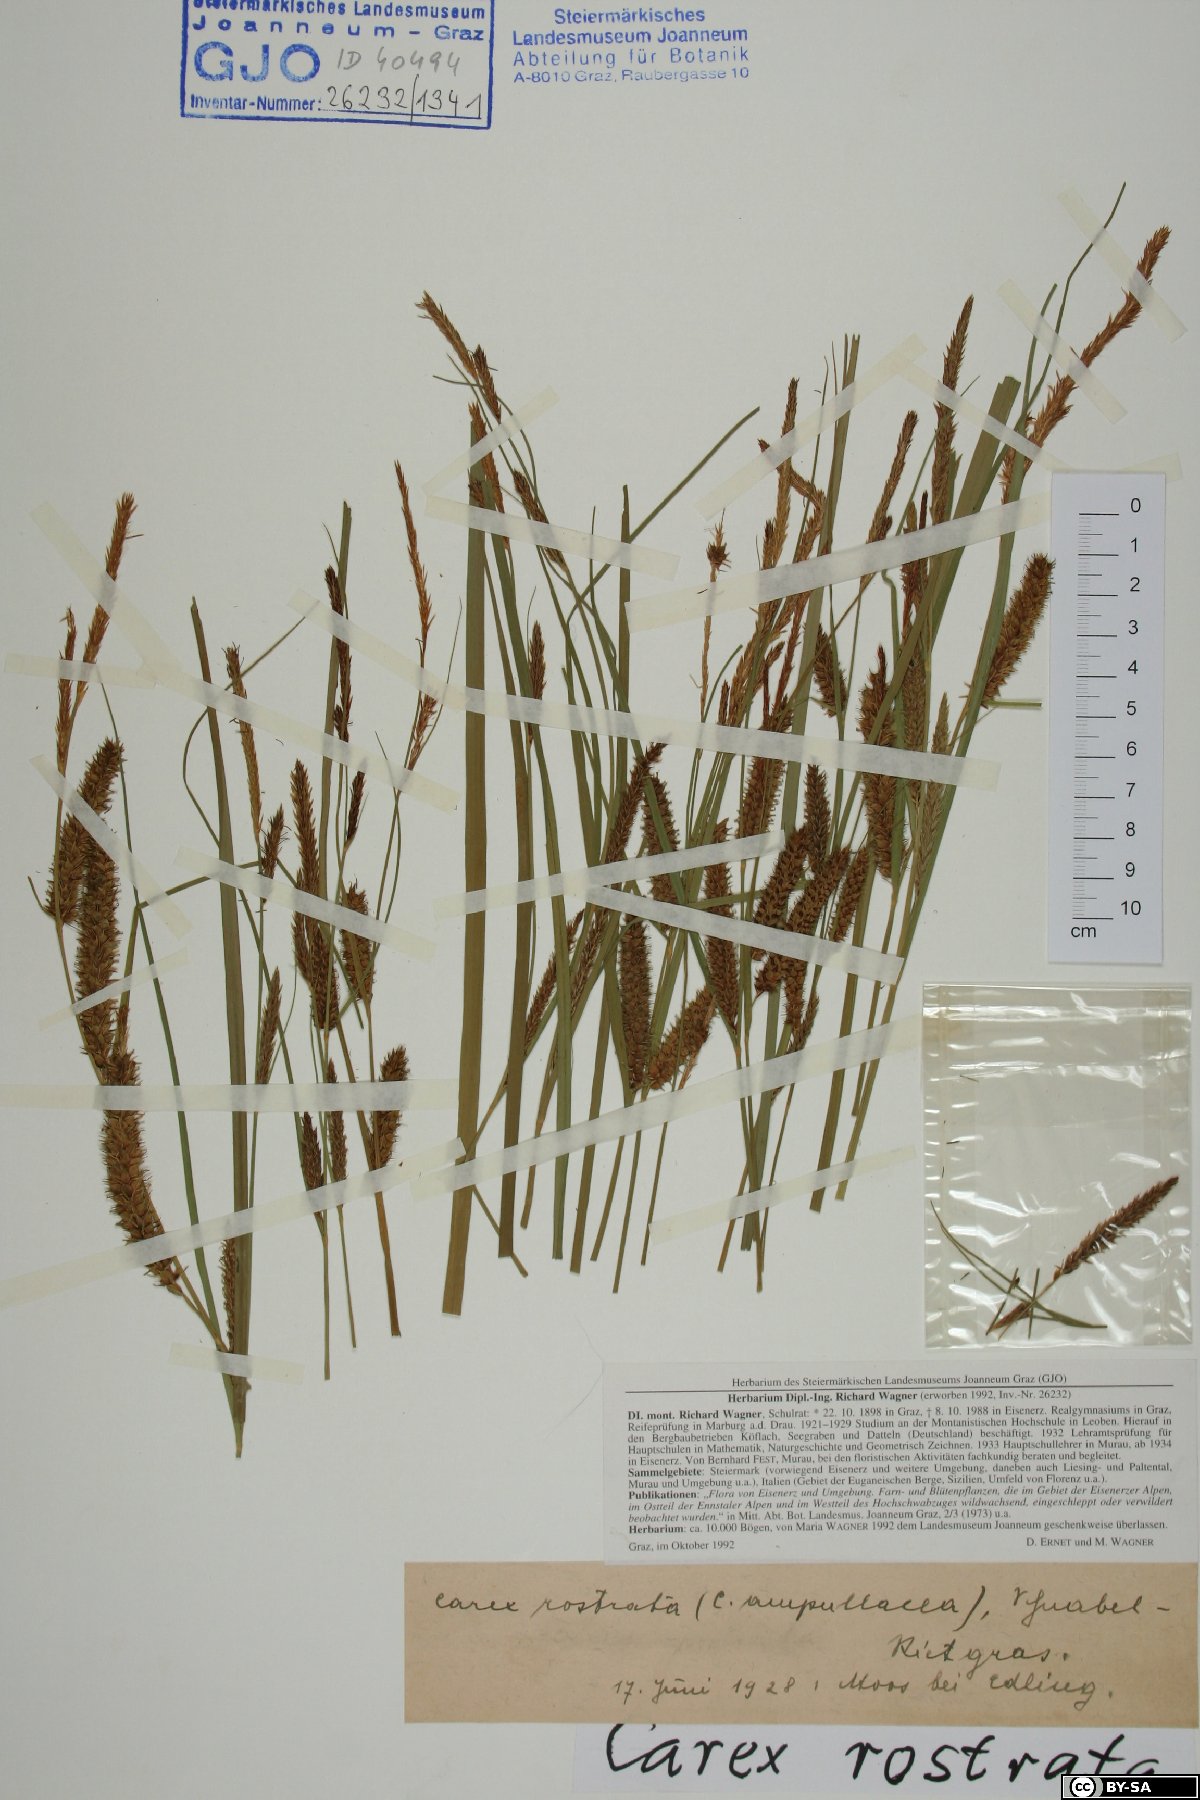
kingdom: Plantae
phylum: Tracheophyta
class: Liliopsida
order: Poales
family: Cyperaceae
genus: Carex
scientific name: Carex rostrata
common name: Bottle sedge
